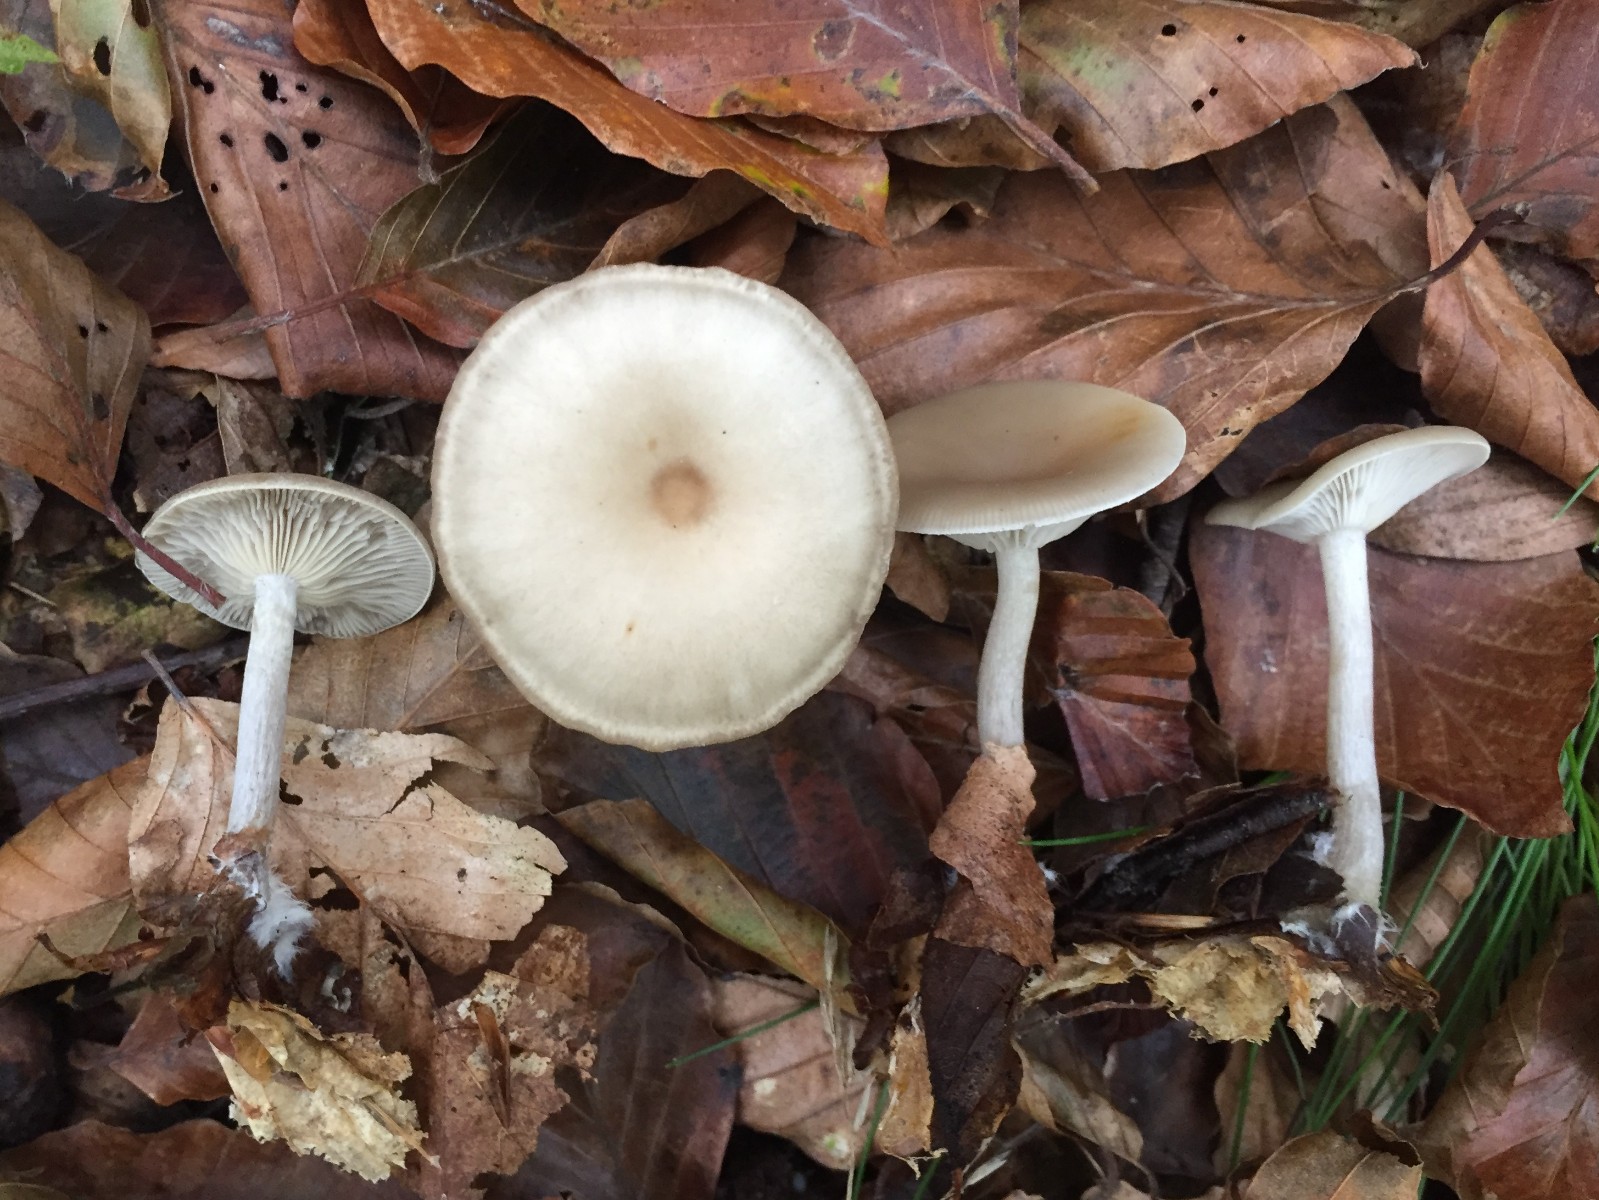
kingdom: Fungi
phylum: Basidiomycota
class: Agaricomycetes
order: Agaricales
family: Tricholomataceae
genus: Clitocybe
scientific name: Clitocybe metachroa
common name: grå tragthat
